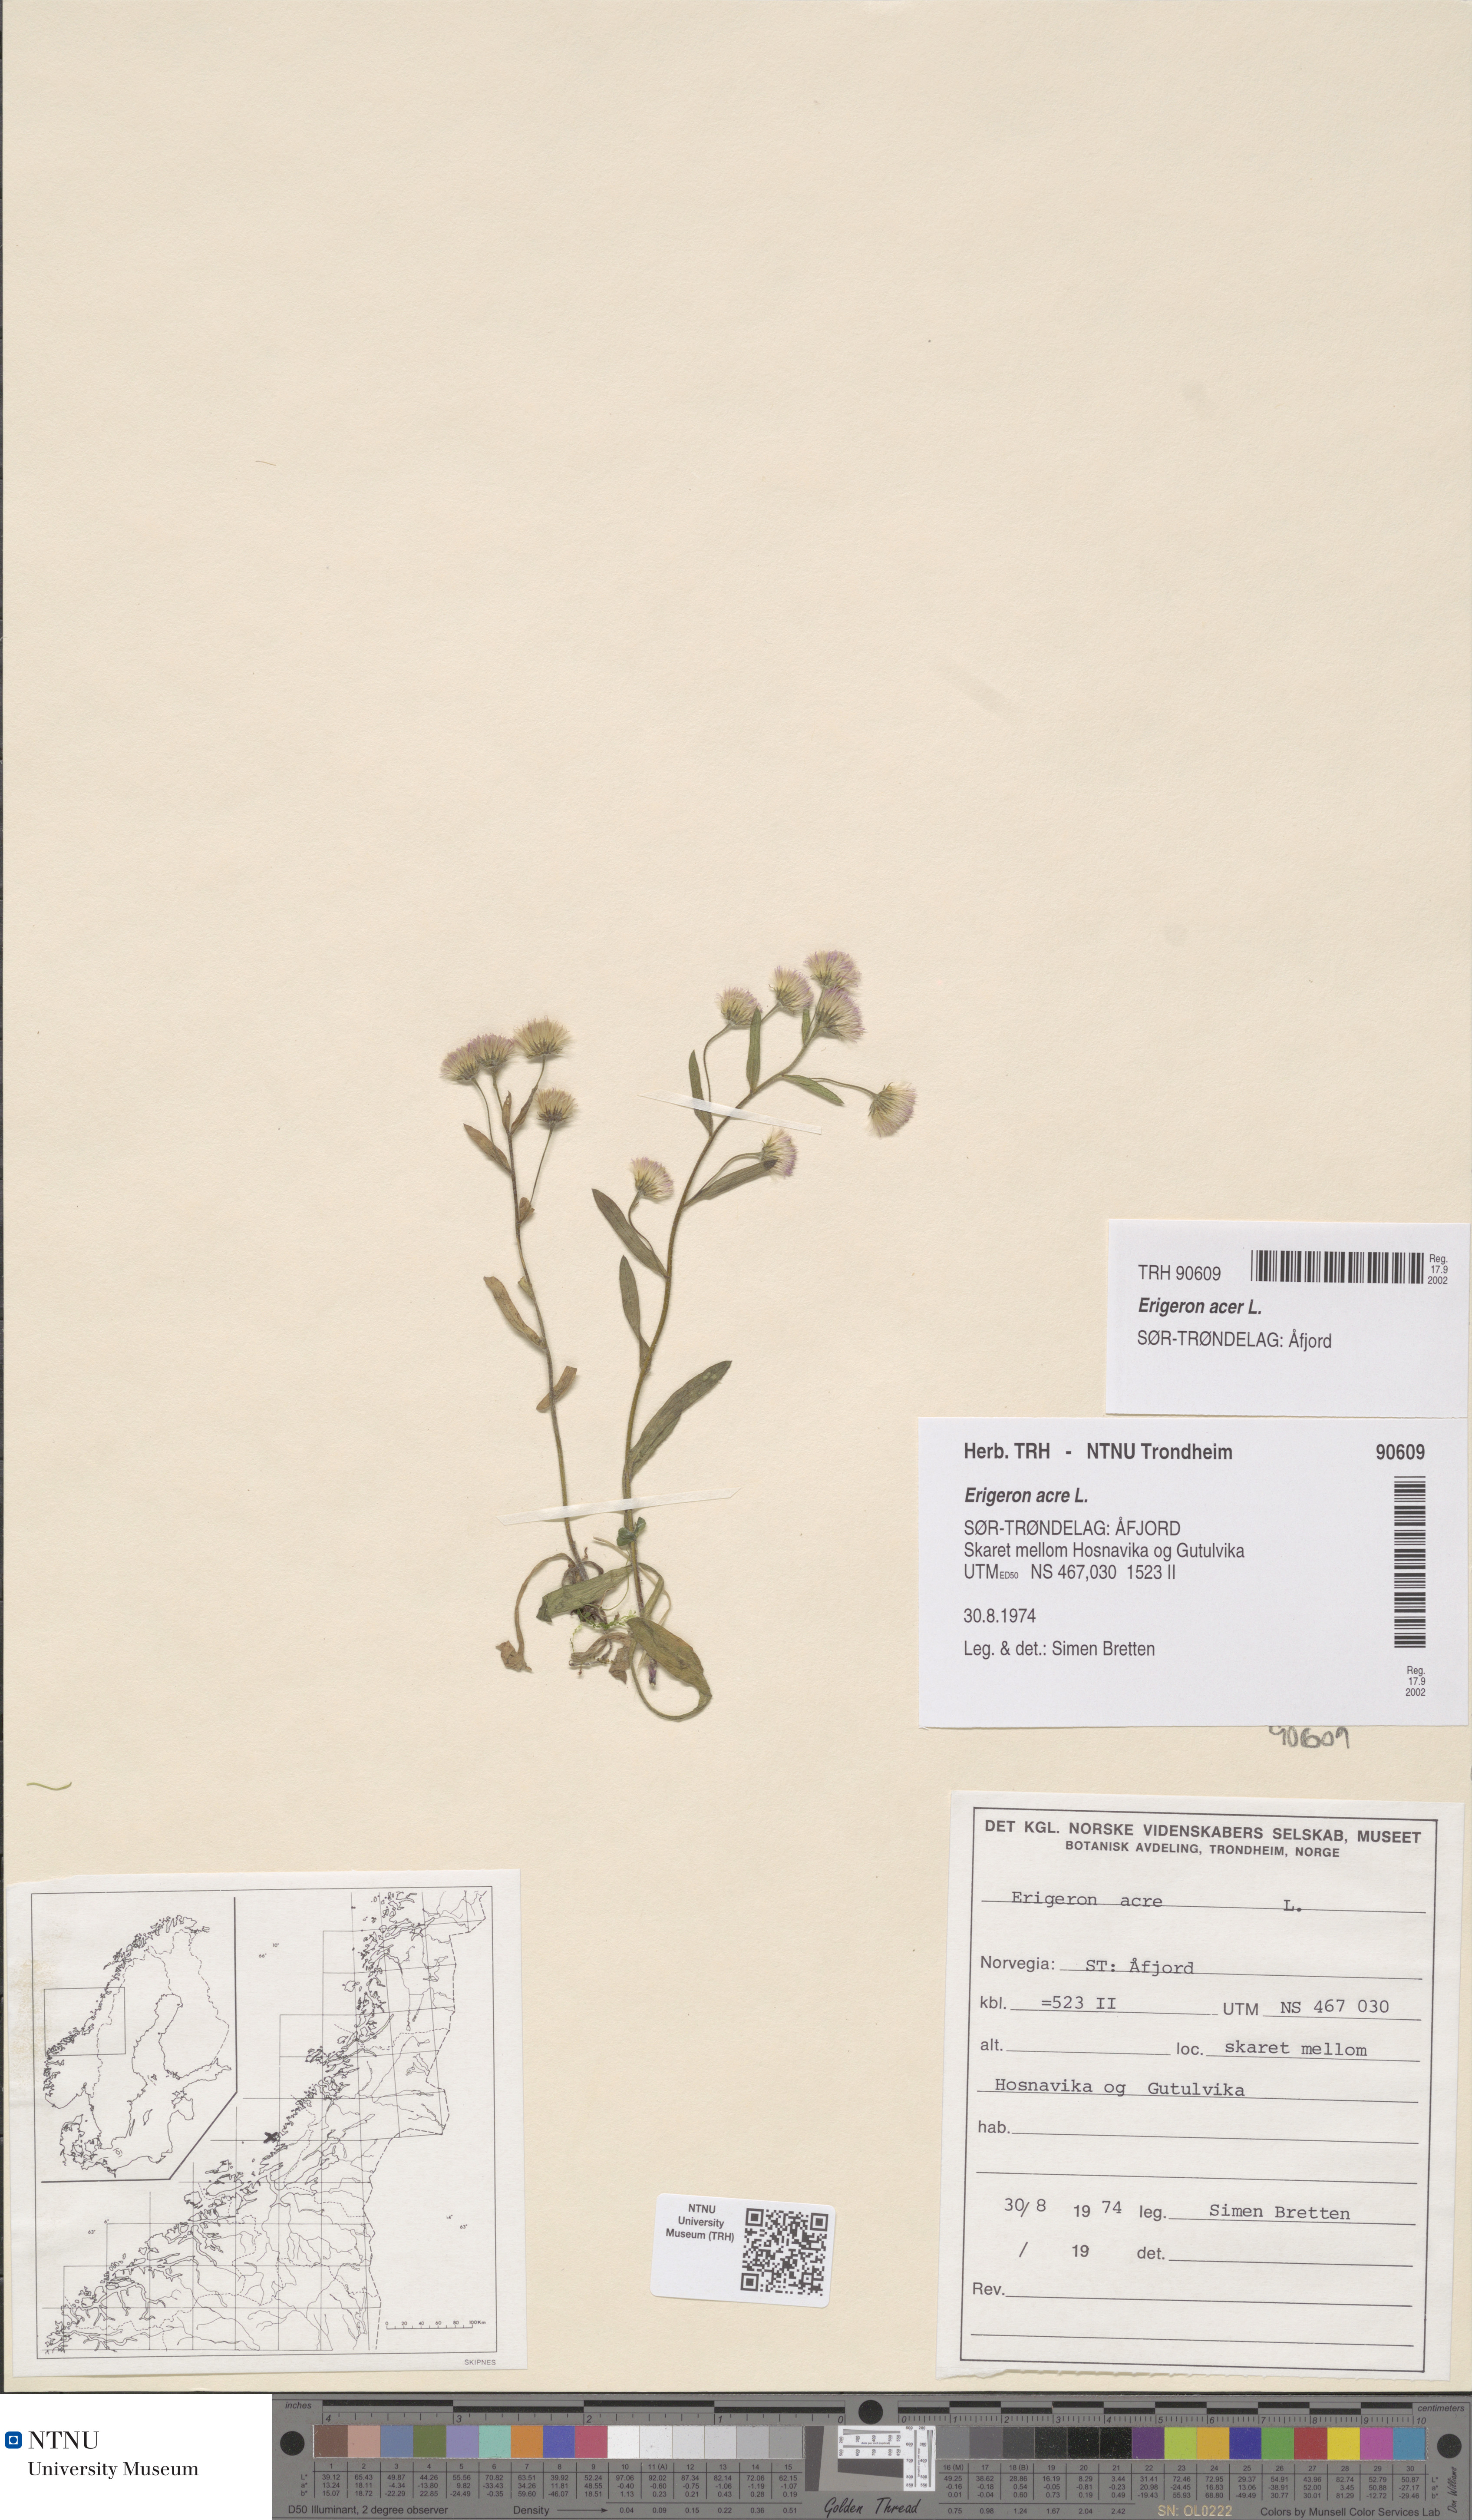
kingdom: Plantae
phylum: Tracheophyta
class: Magnoliopsida
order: Asterales
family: Asteraceae
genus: Erigeron
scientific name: Erigeron acris
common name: Blue fleabane
